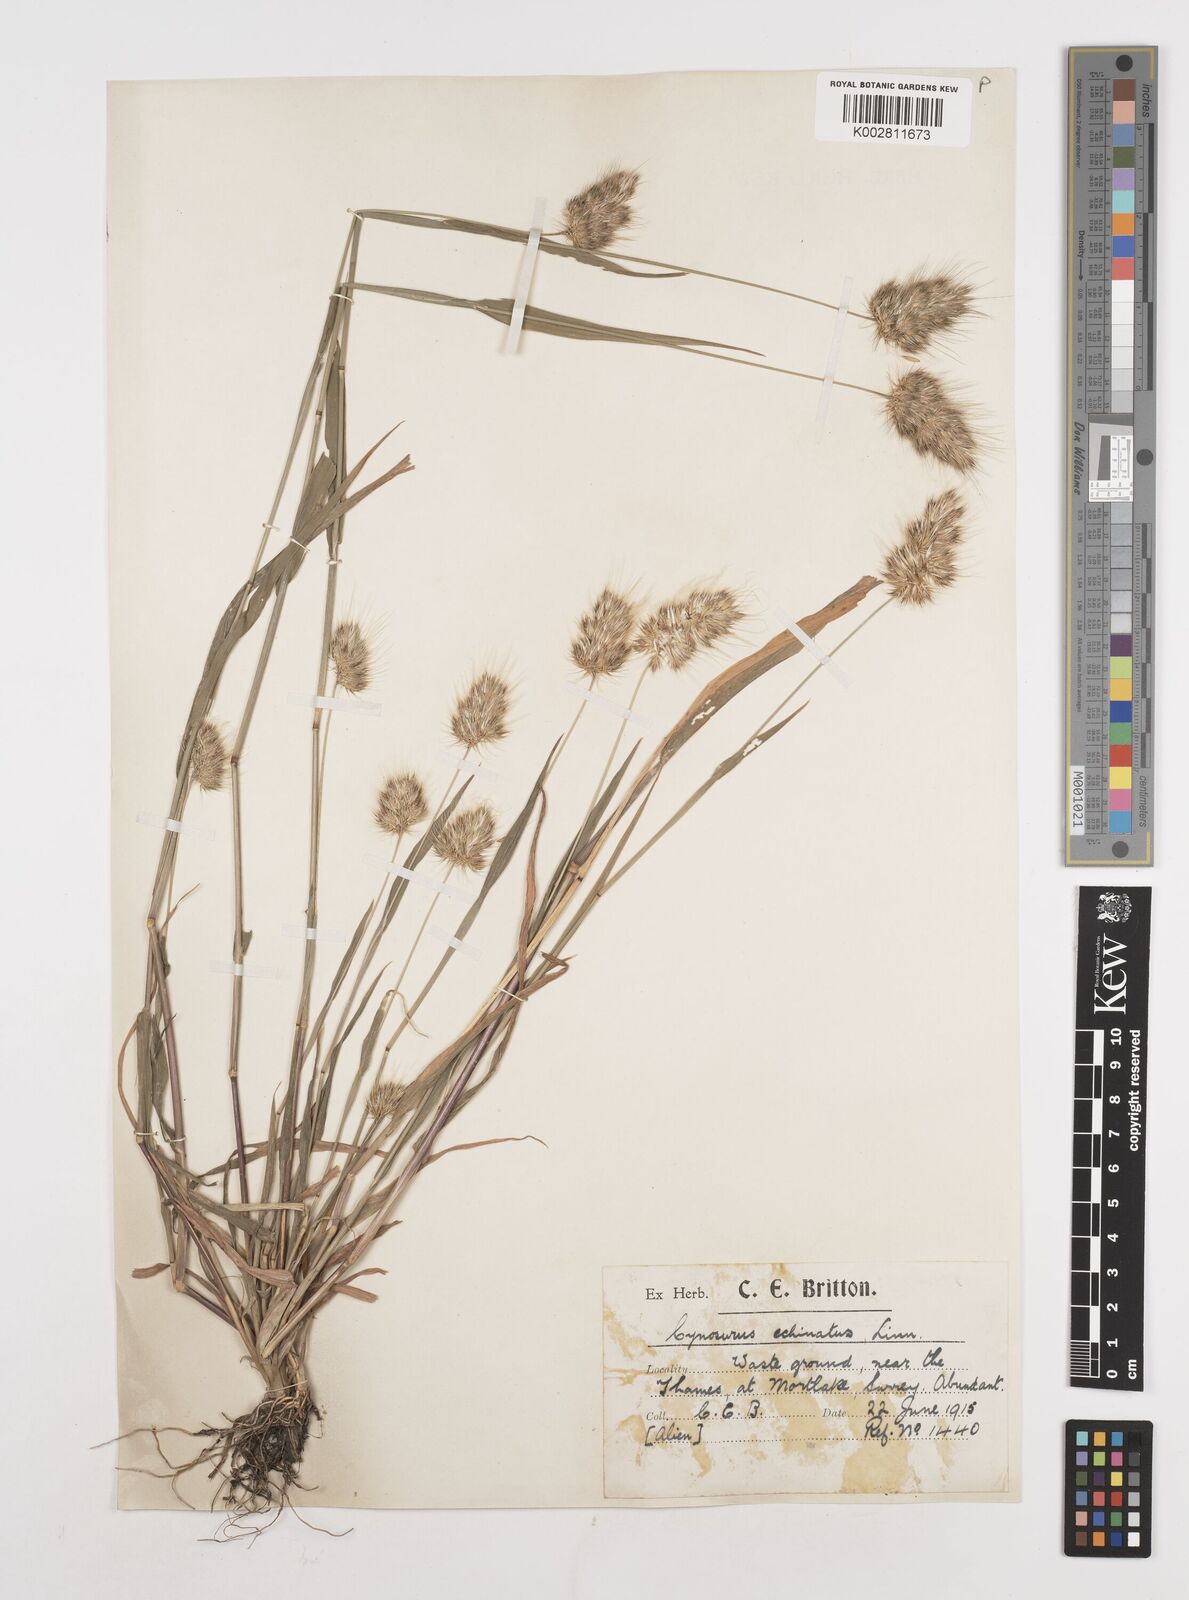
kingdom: Plantae
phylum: Tracheophyta
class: Liliopsida
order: Poales
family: Poaceae
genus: Cynosurus
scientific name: Cynosurus echinatus
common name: Rough dog's-tail
